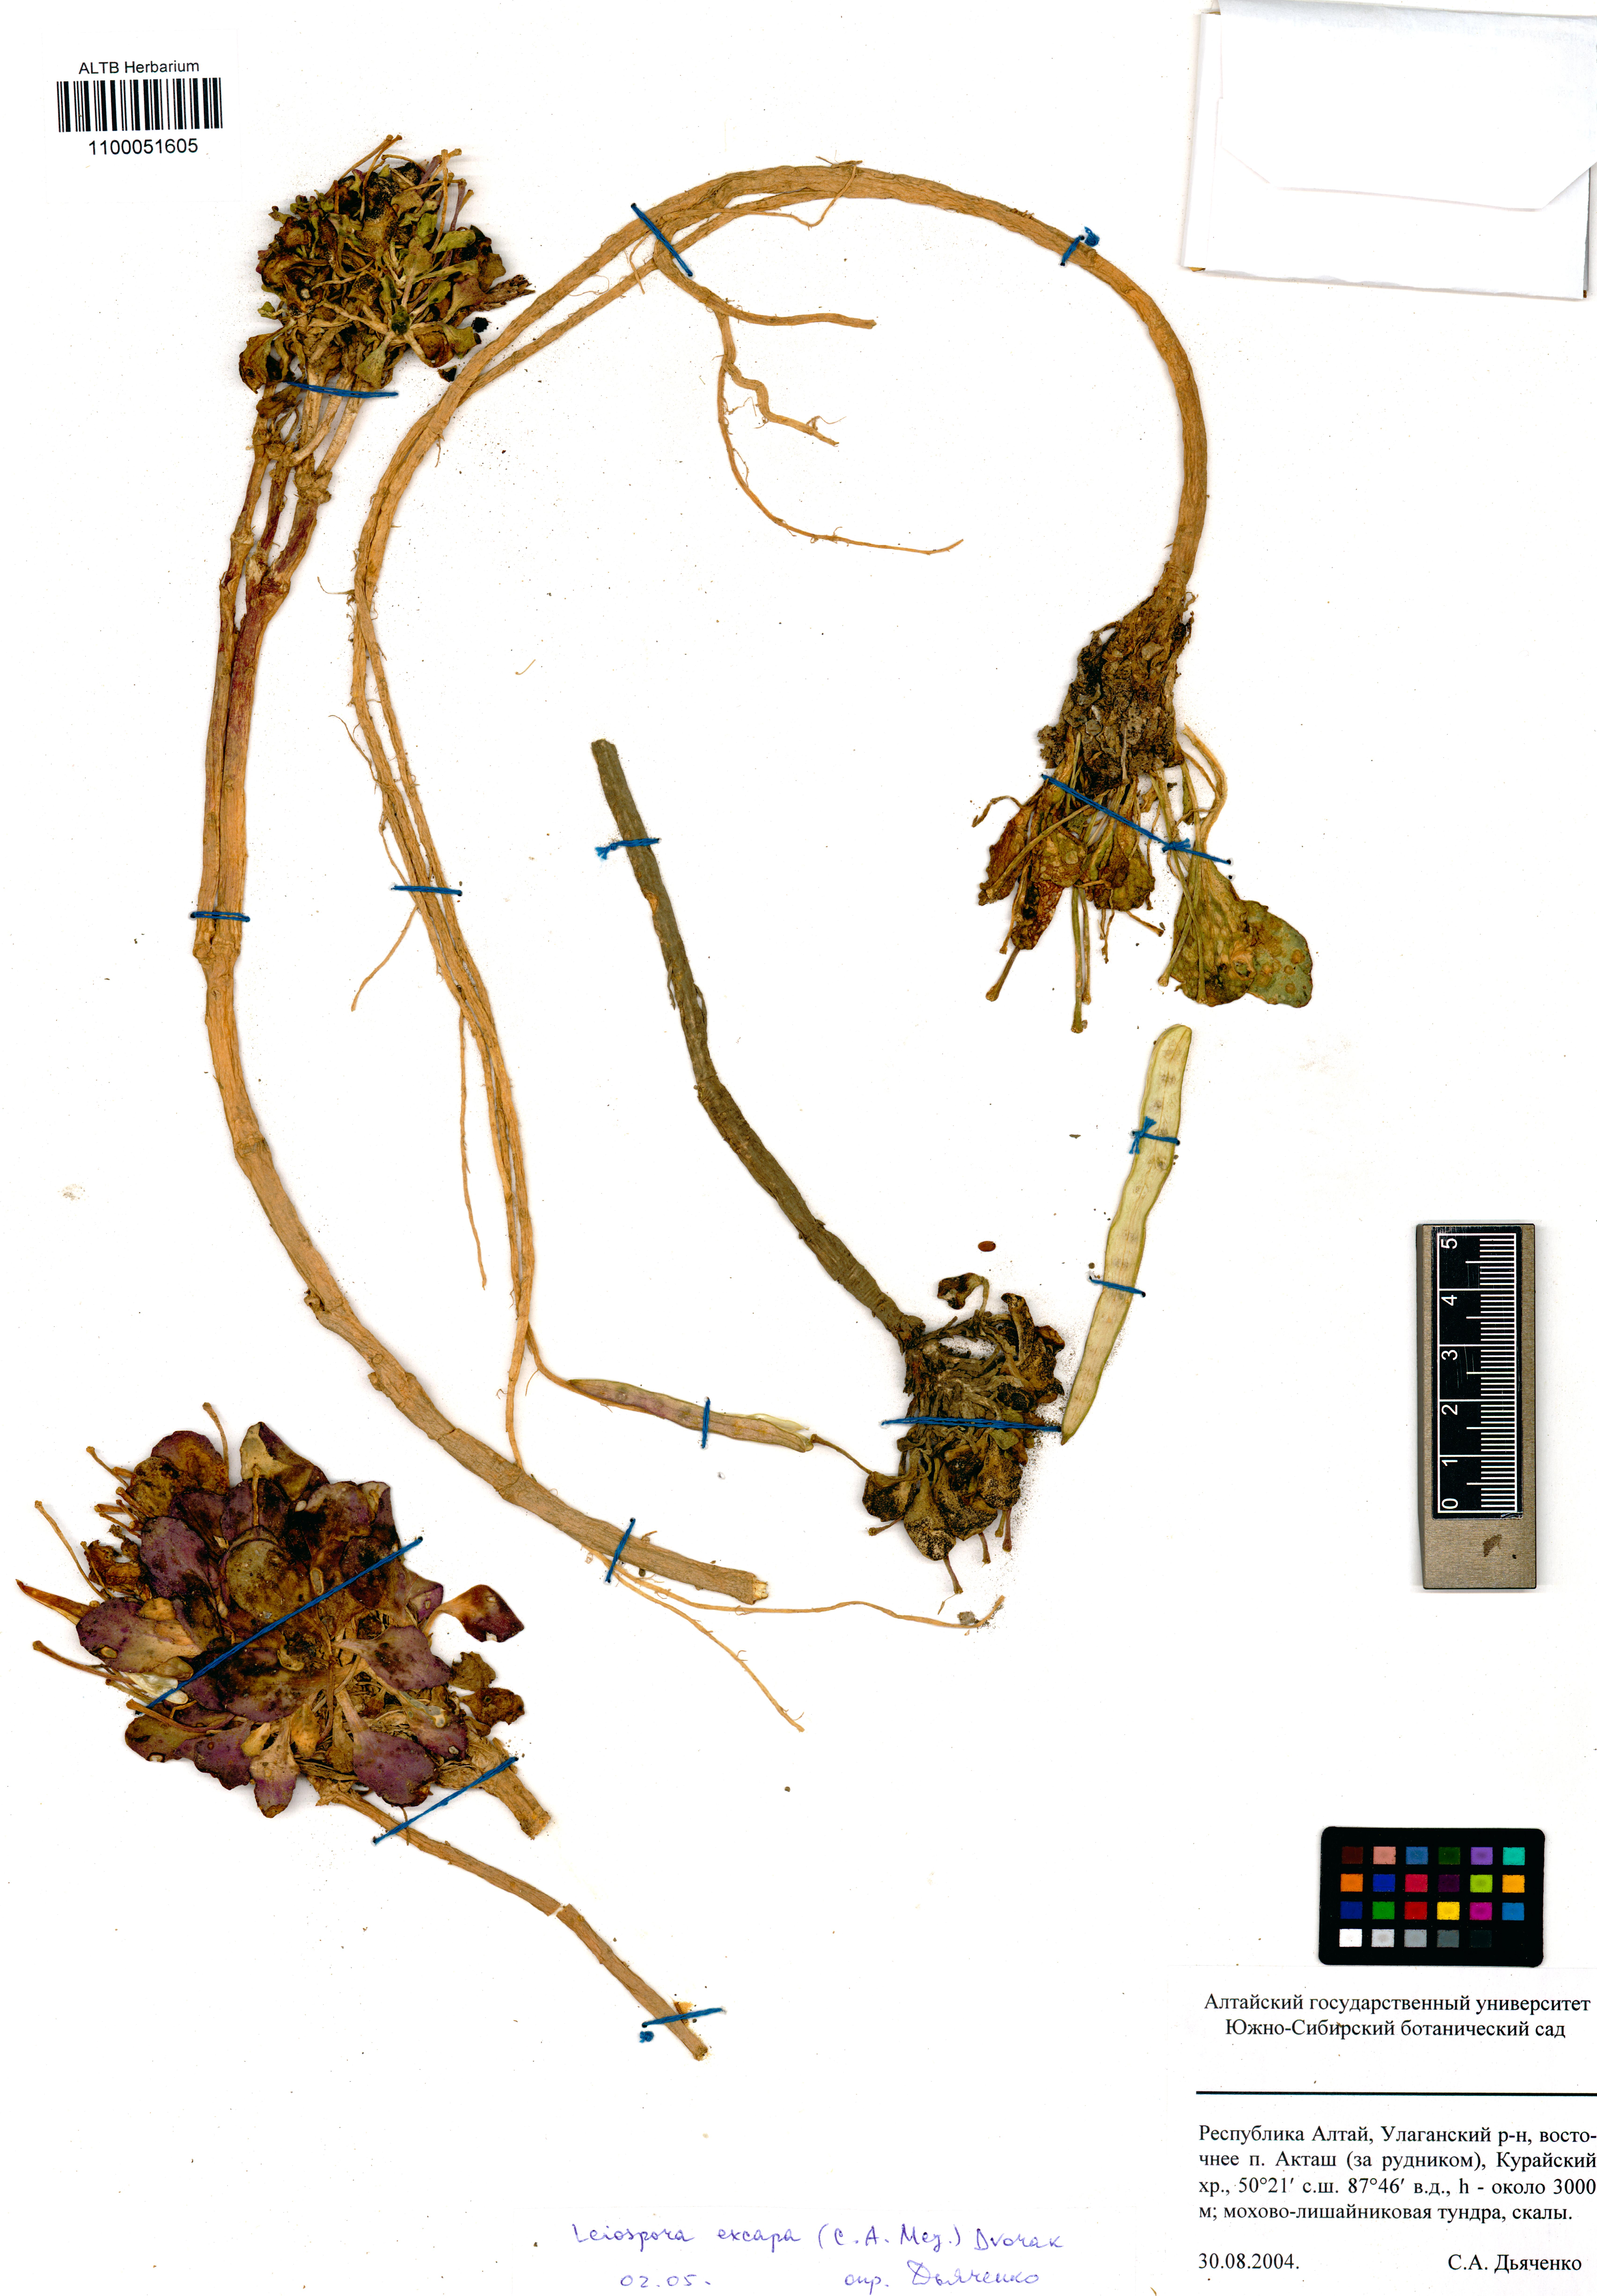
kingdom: Plantae
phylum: Tracheophyta
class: Magnoliopsida
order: Brassicales
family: Brassicaceae
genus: Leiospora
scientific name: Leiospora exscapa
